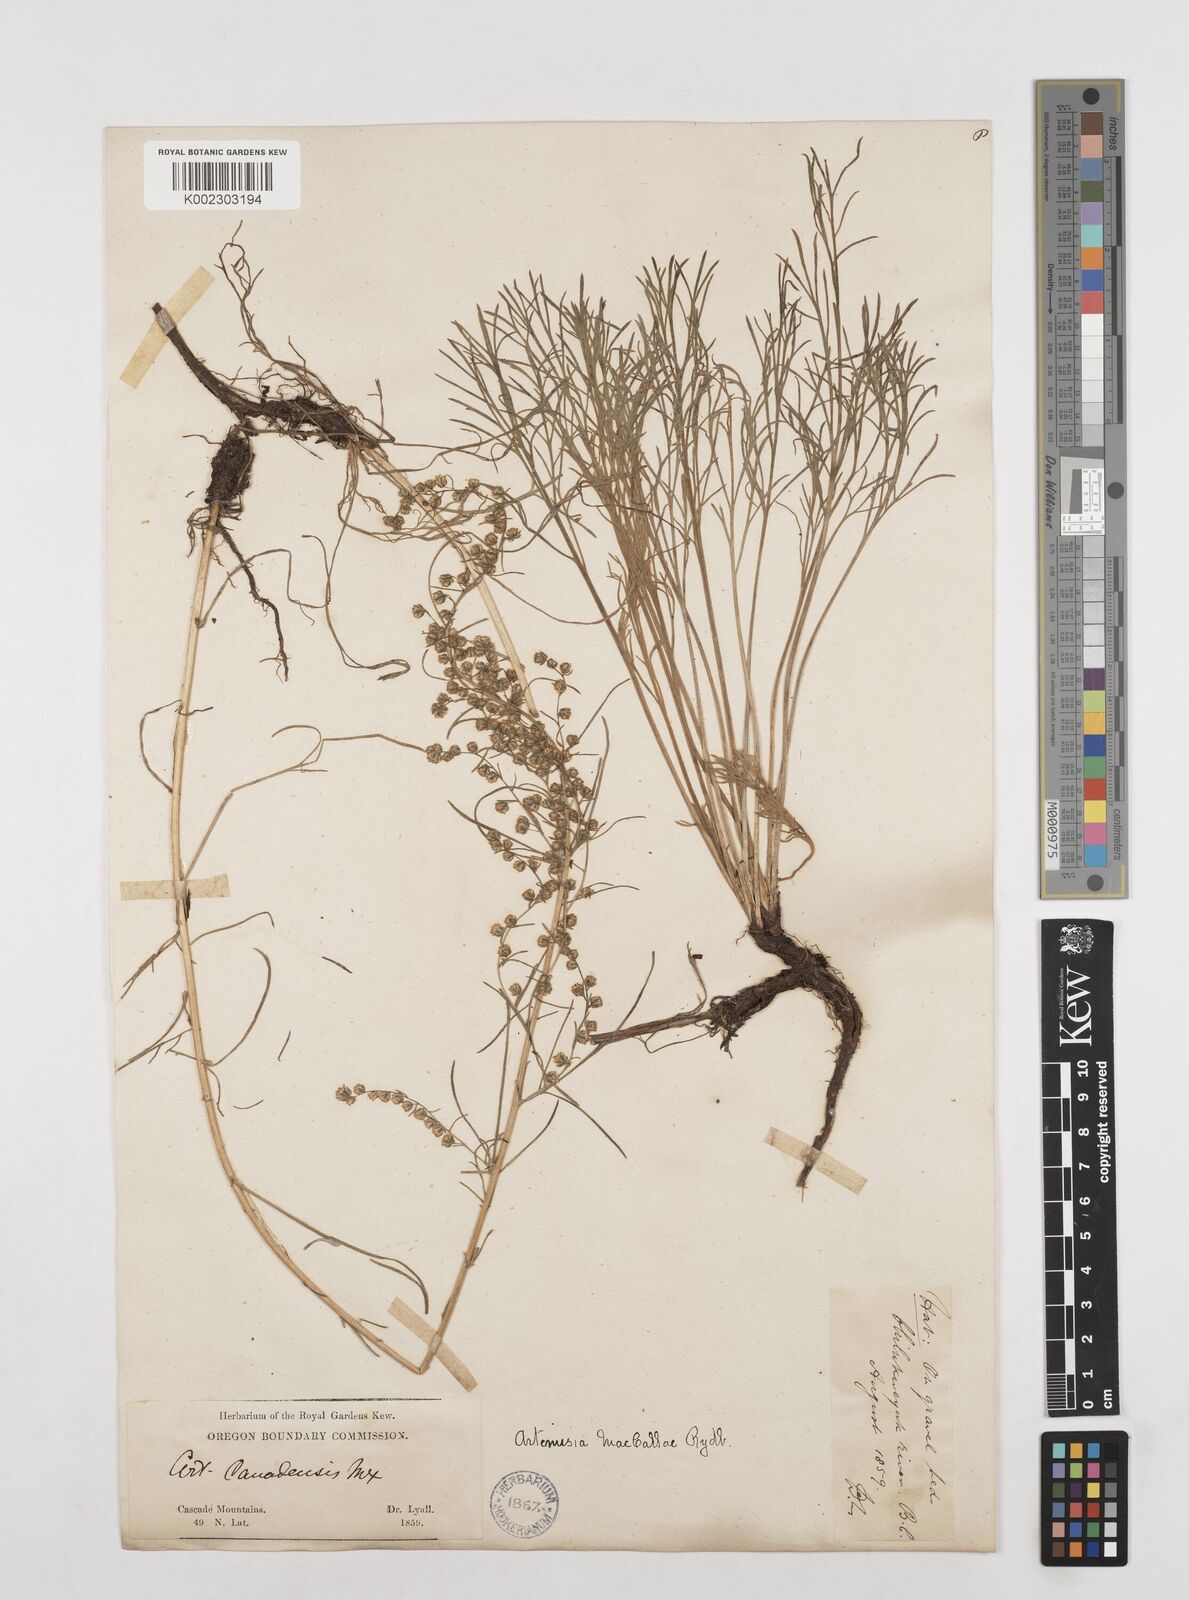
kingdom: Plantae
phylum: Tracheophyta
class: Magnoliopsida
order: Asterales
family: Asteraceae
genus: Artemisia
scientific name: Artemisia campestris
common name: Field wormwood
